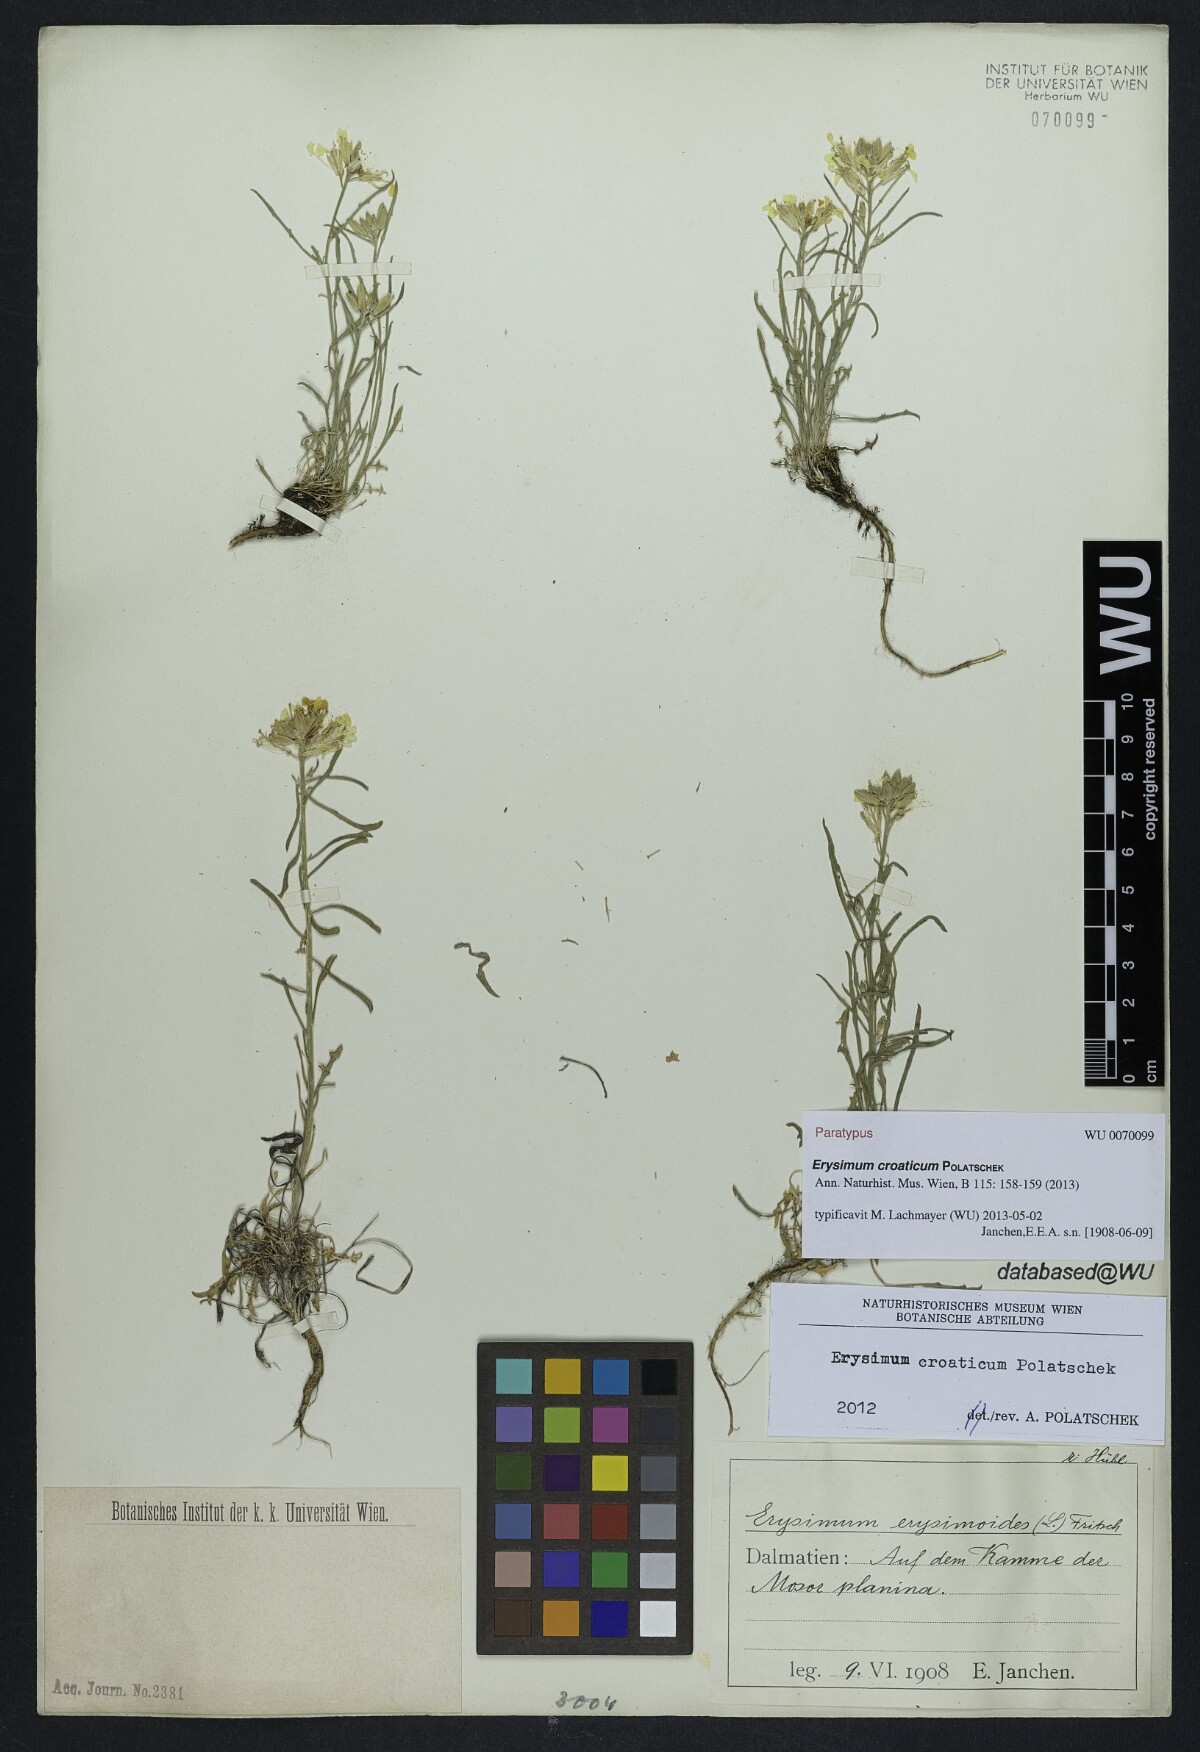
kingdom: Plantae
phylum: Tracheophyta
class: Magnoliopsida
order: Brassicales
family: Brassicaceae
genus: Erysimum
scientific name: Erysimum croaticum
